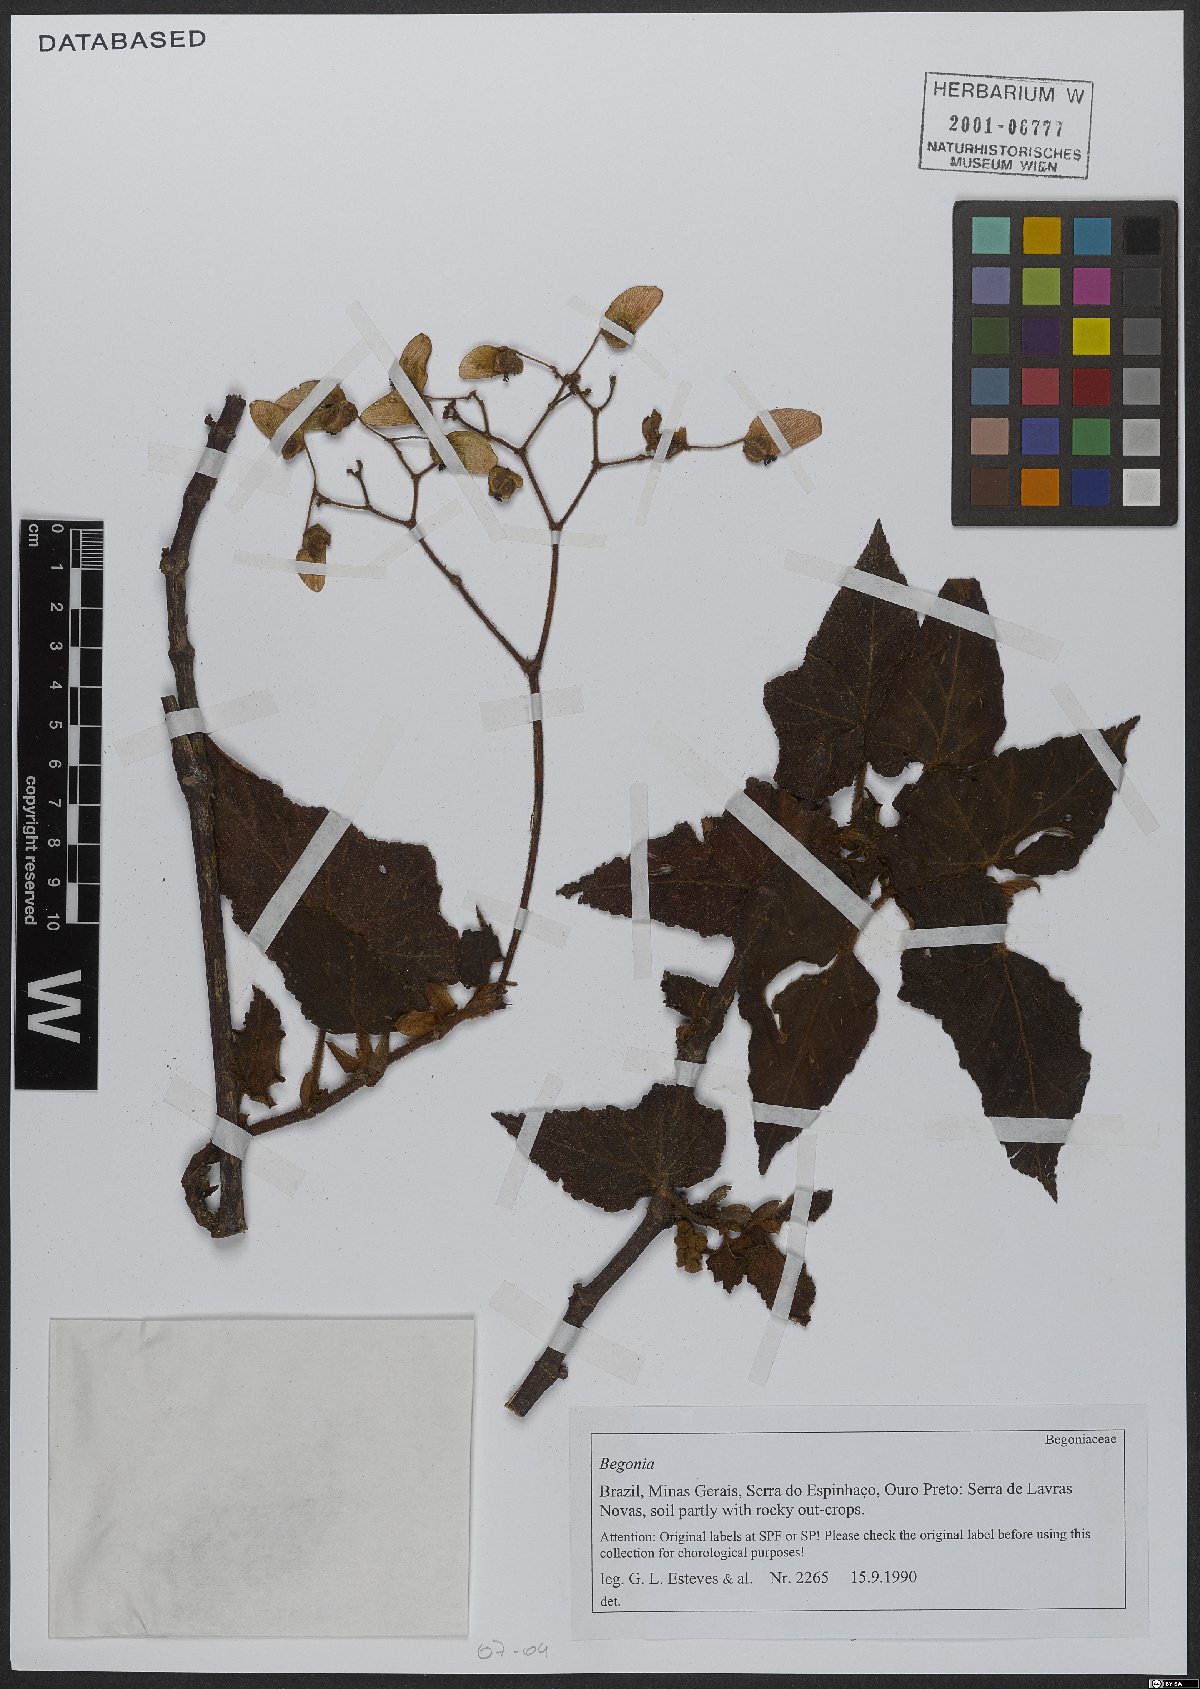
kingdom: Plantae
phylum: Tracheophyta
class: Magnoliopsida
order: Cucurbitales
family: Begoniaceae
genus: Begonia
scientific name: Begonia
